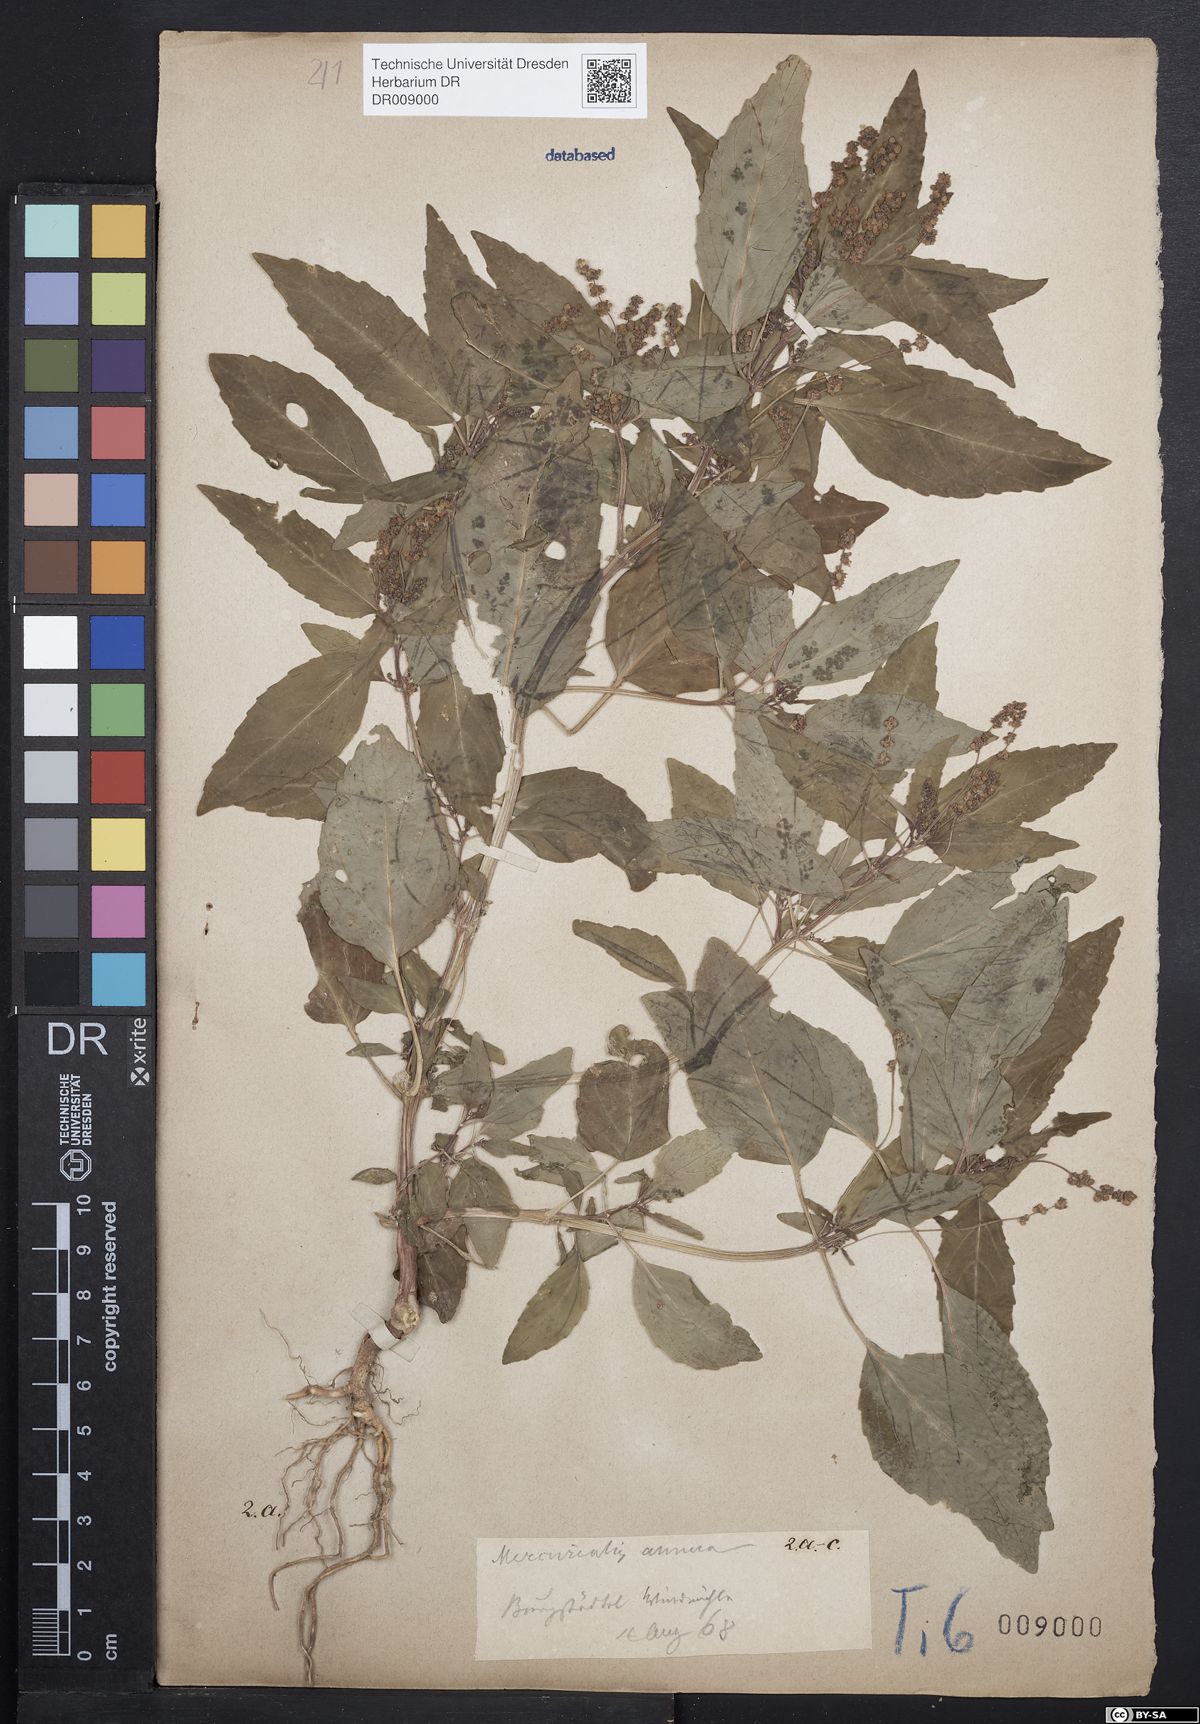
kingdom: Plantae
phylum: Tracheophyta
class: Magnoliopsida
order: Malpighiales
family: Euphorbiaceae
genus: Mercurialis
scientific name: Mercurialis annua
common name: Annual mercury
